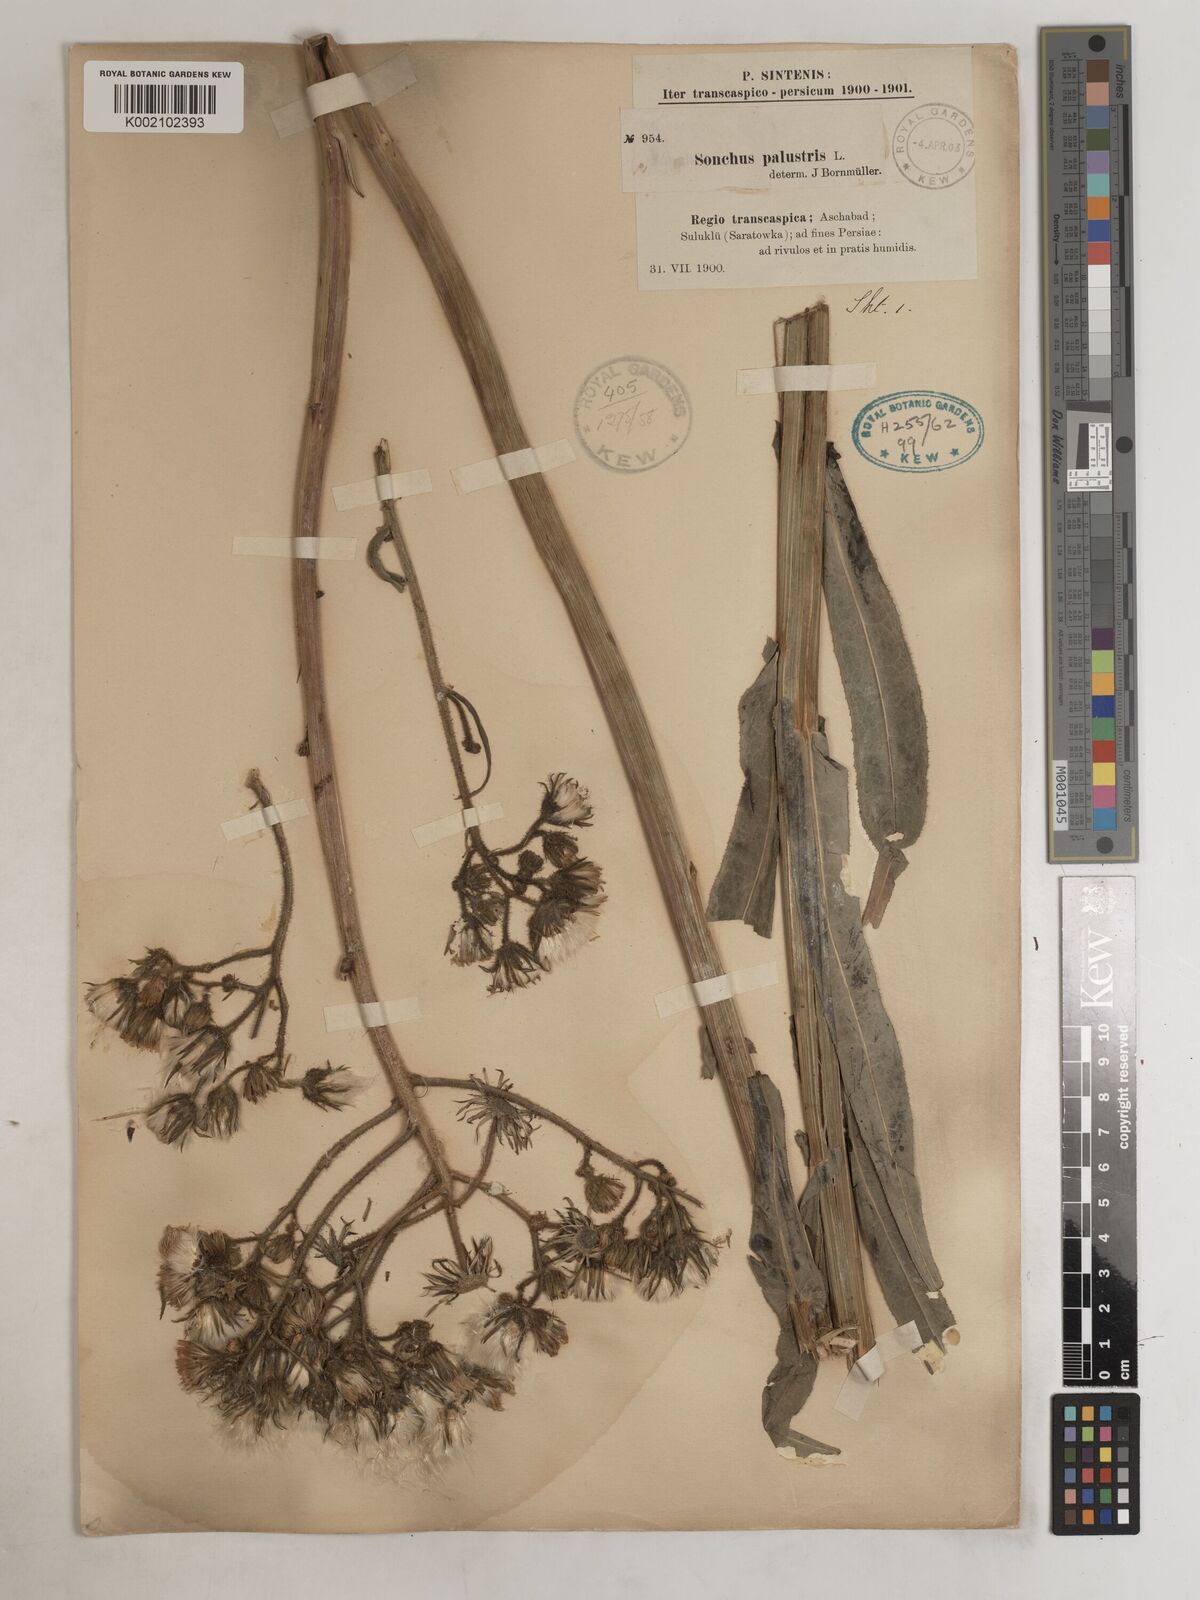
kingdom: Plantae
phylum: Tracheophyta
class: Magnoliopsida
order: Asterales
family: Asteraceae
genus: Sonchus
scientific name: Sonchus palustris
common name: Marsh sow-thistle
